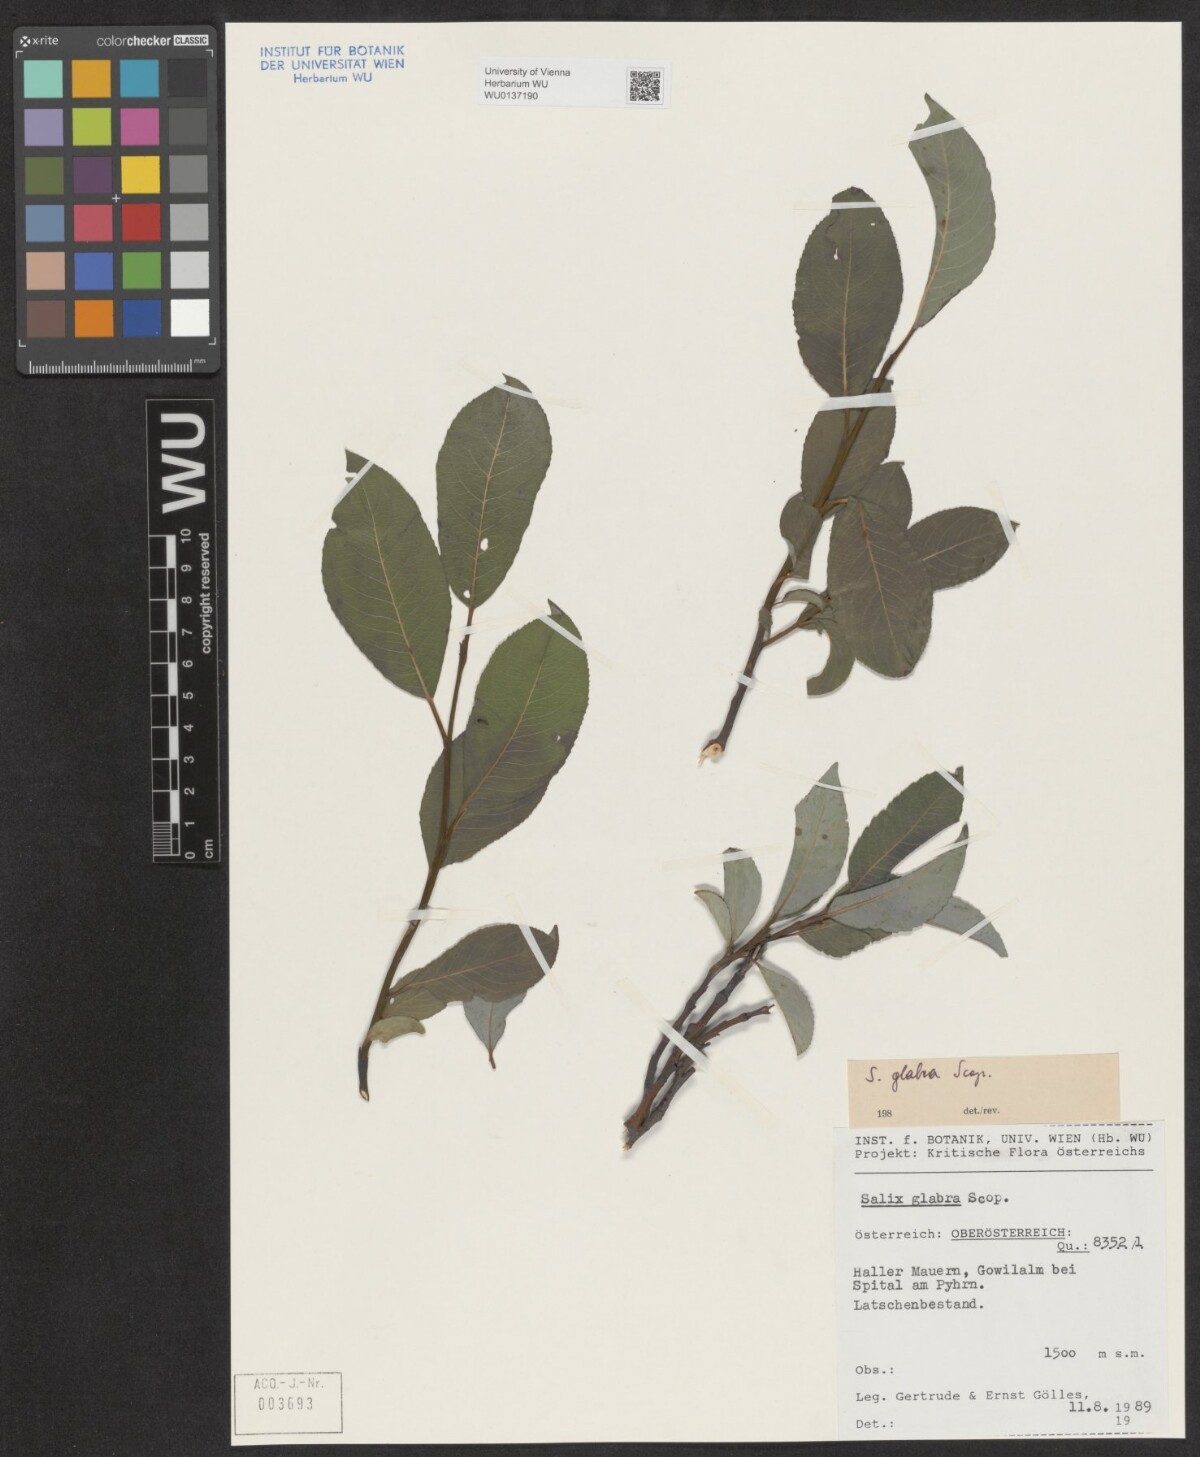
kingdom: Plantae
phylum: Tracheophyta
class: Magnoliopsida
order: Malpighiales
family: Salicaceae
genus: Salix
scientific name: Salix glabra
